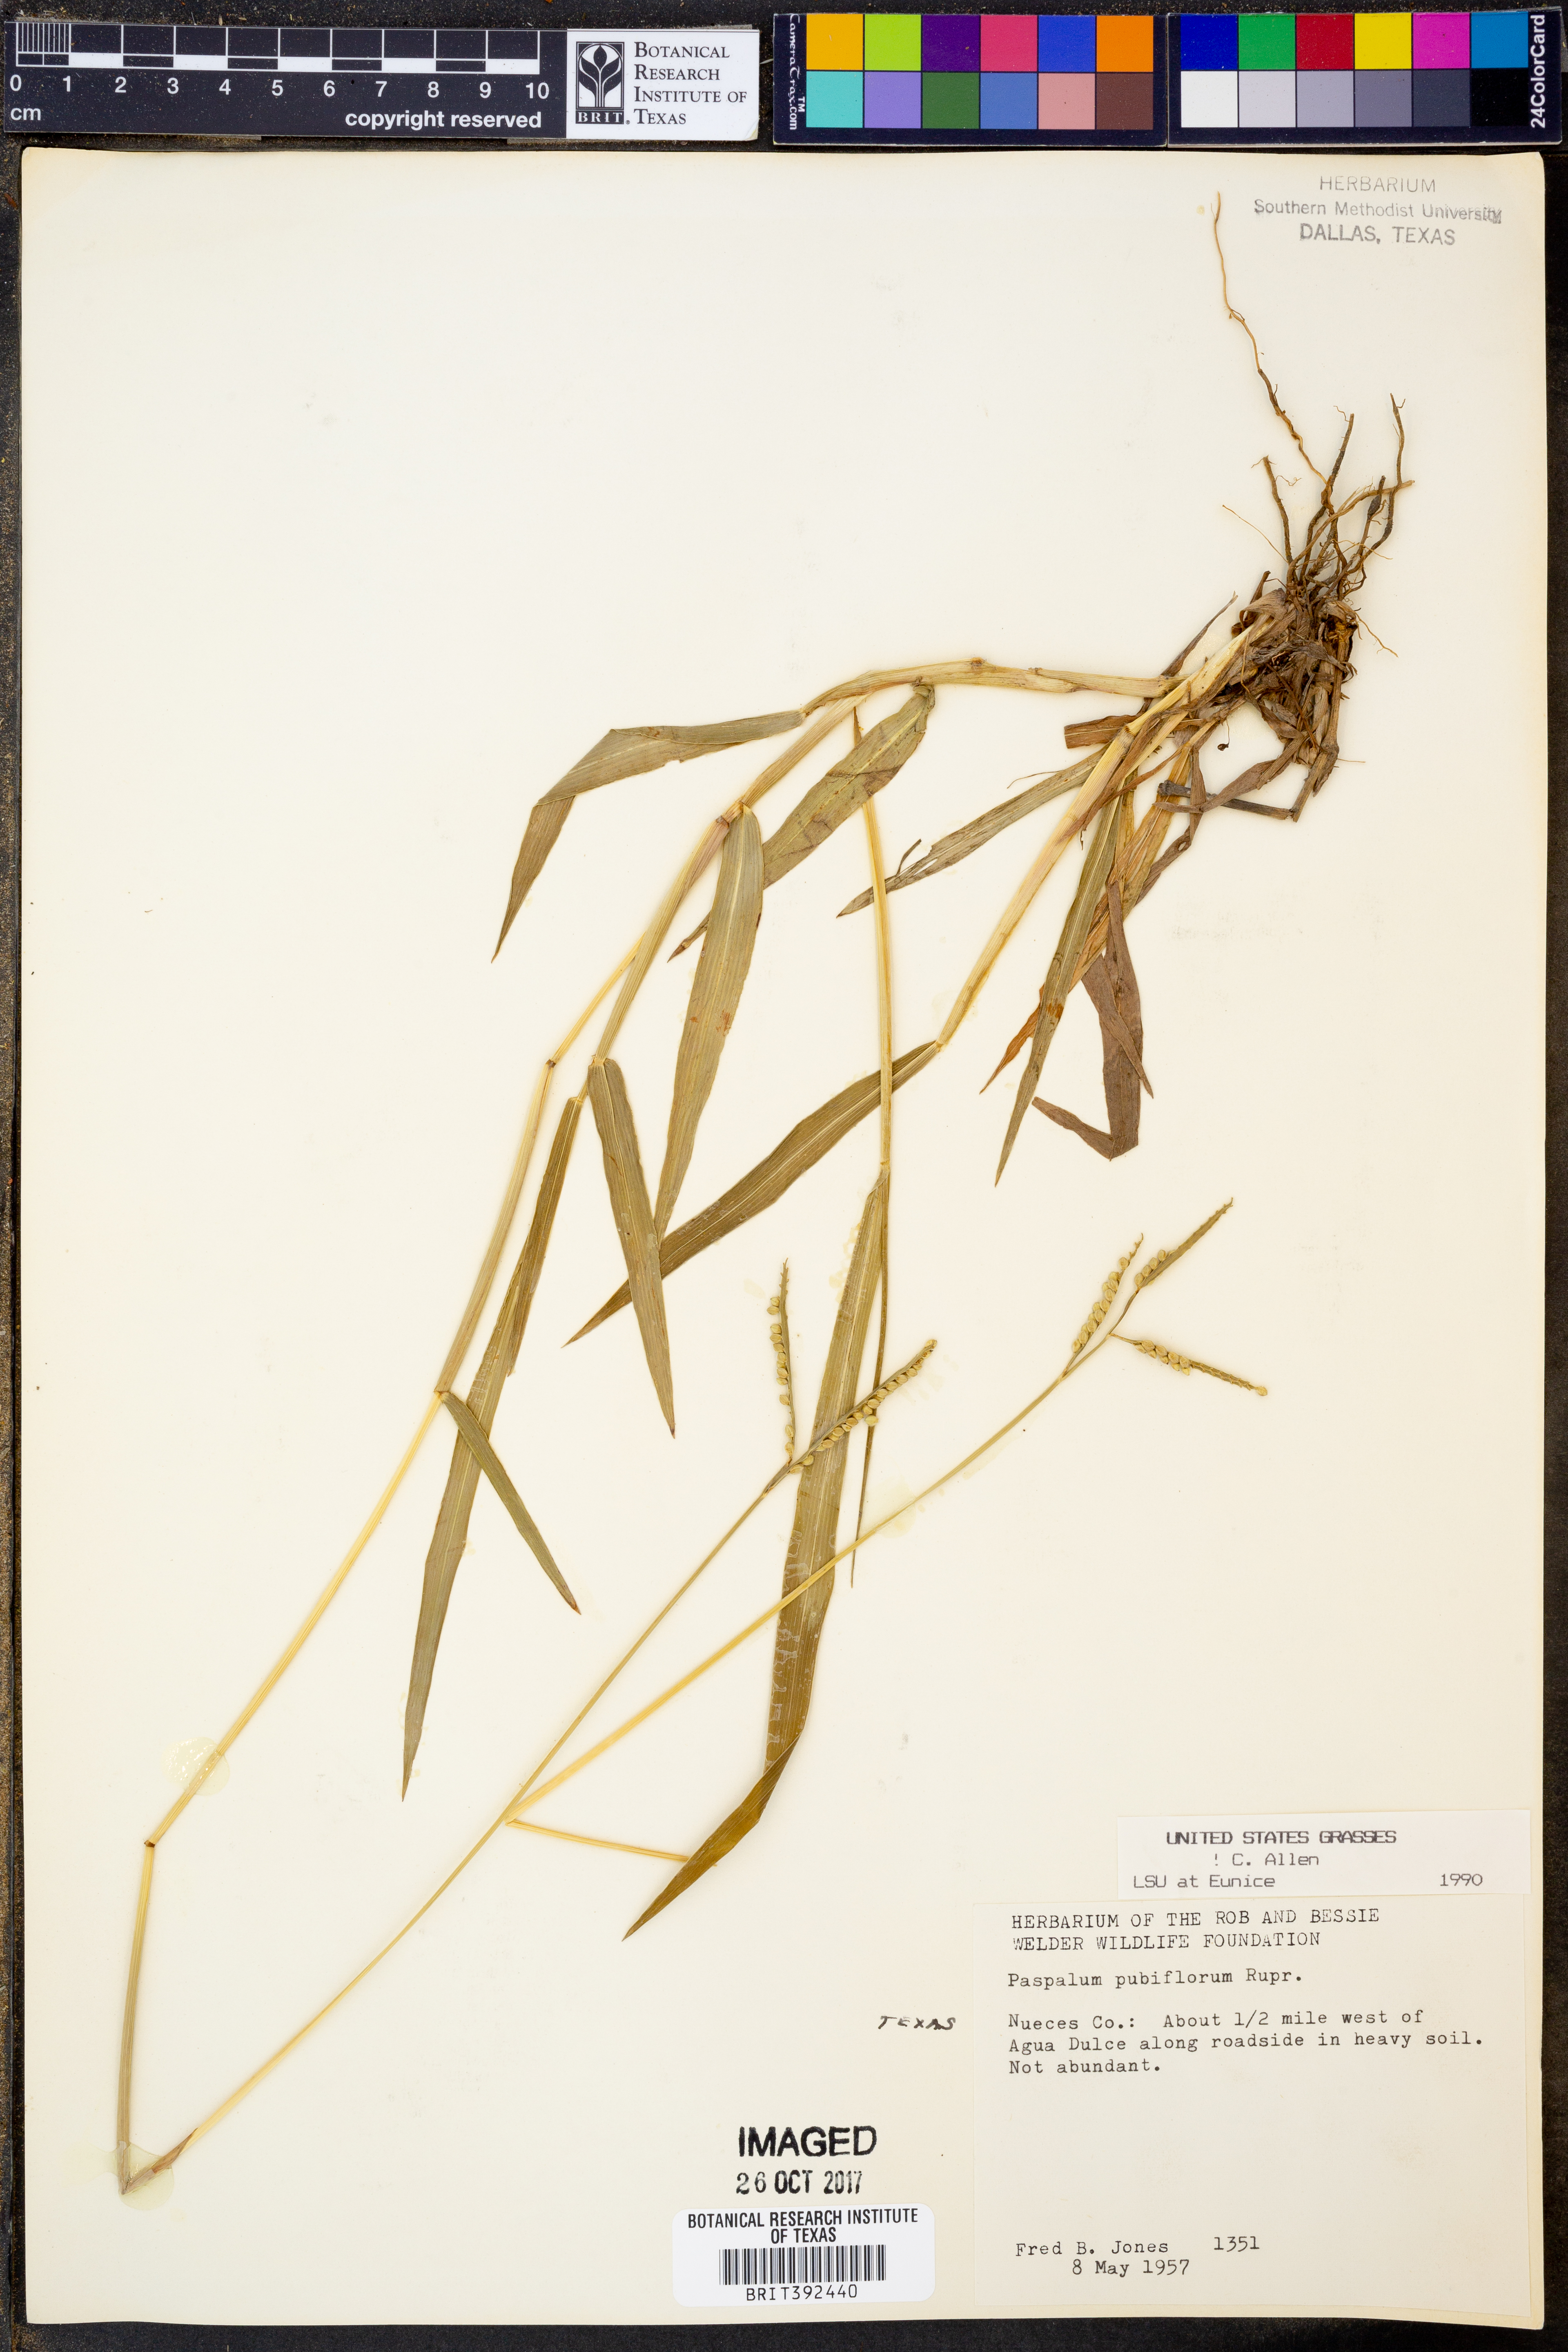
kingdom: Plantae
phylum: Tracheophyta
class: Liliopsida
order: Poales
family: Poaceae
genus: Paspalum
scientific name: Paspalum pubiflorum
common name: Hairy-seed paspalum
